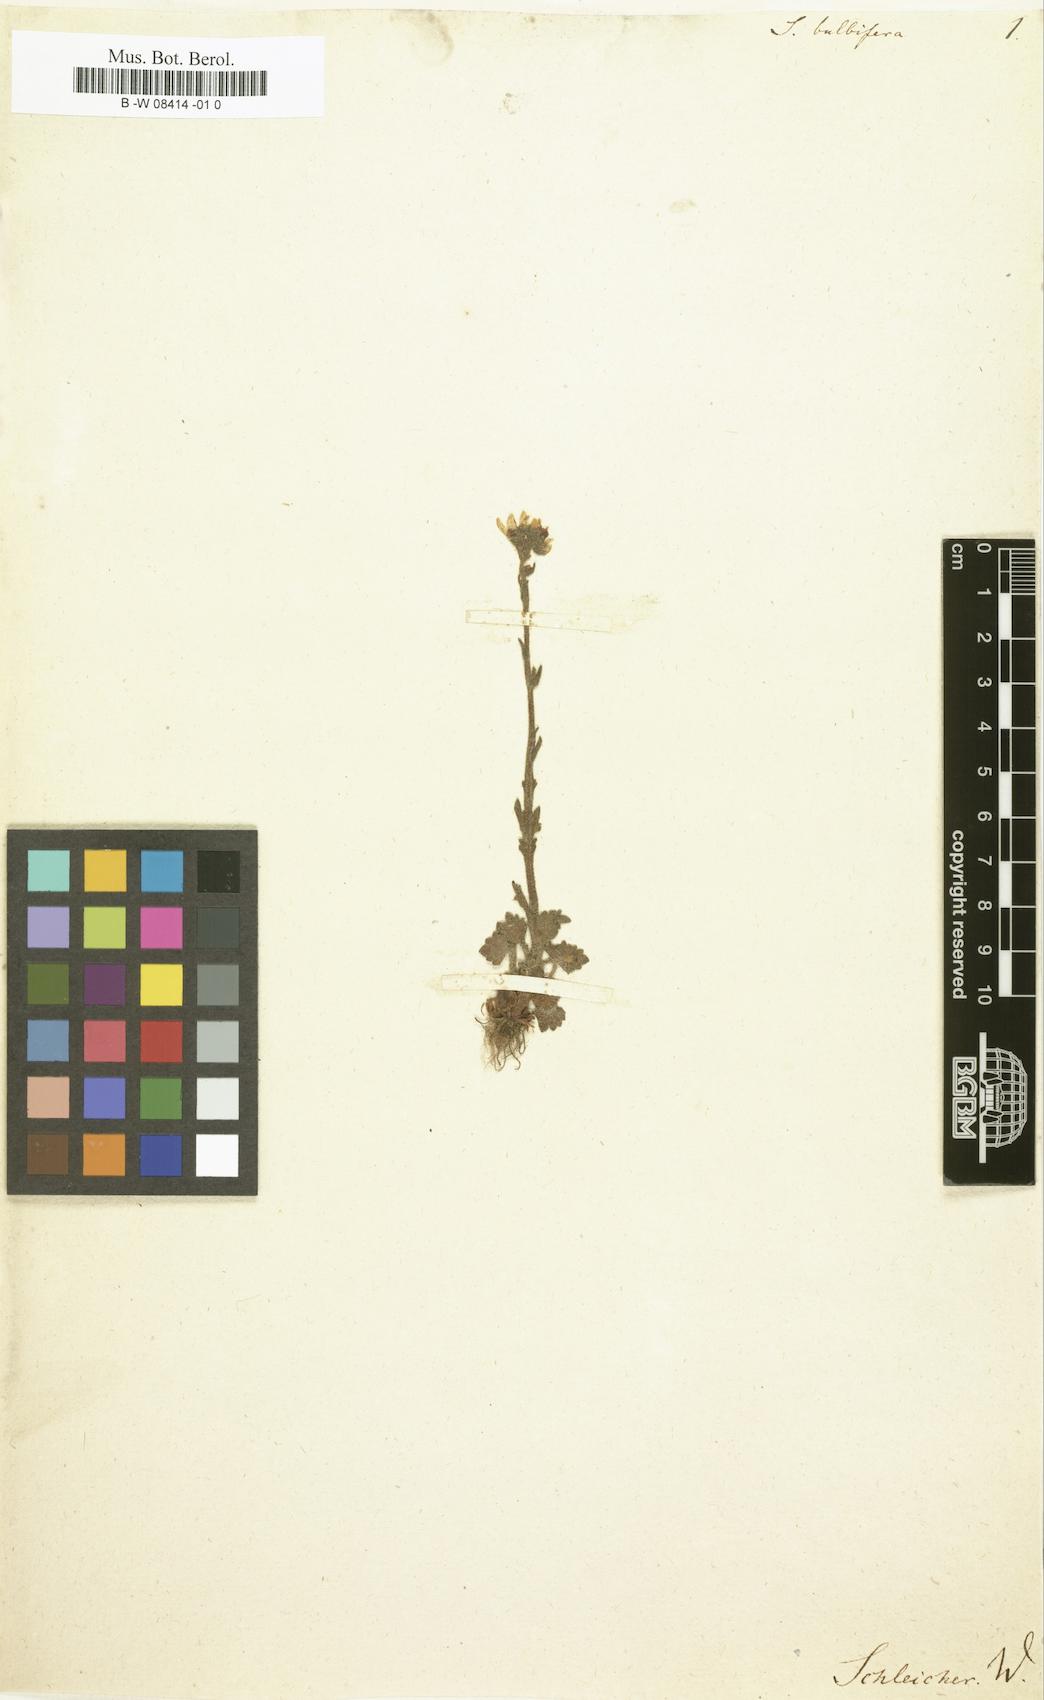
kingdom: Plantae
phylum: Tracheophyta
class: Magnoliopsida
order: Saxifragales
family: Saxifragaceae
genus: Saxifraga
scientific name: Saxifraga bulbifera
